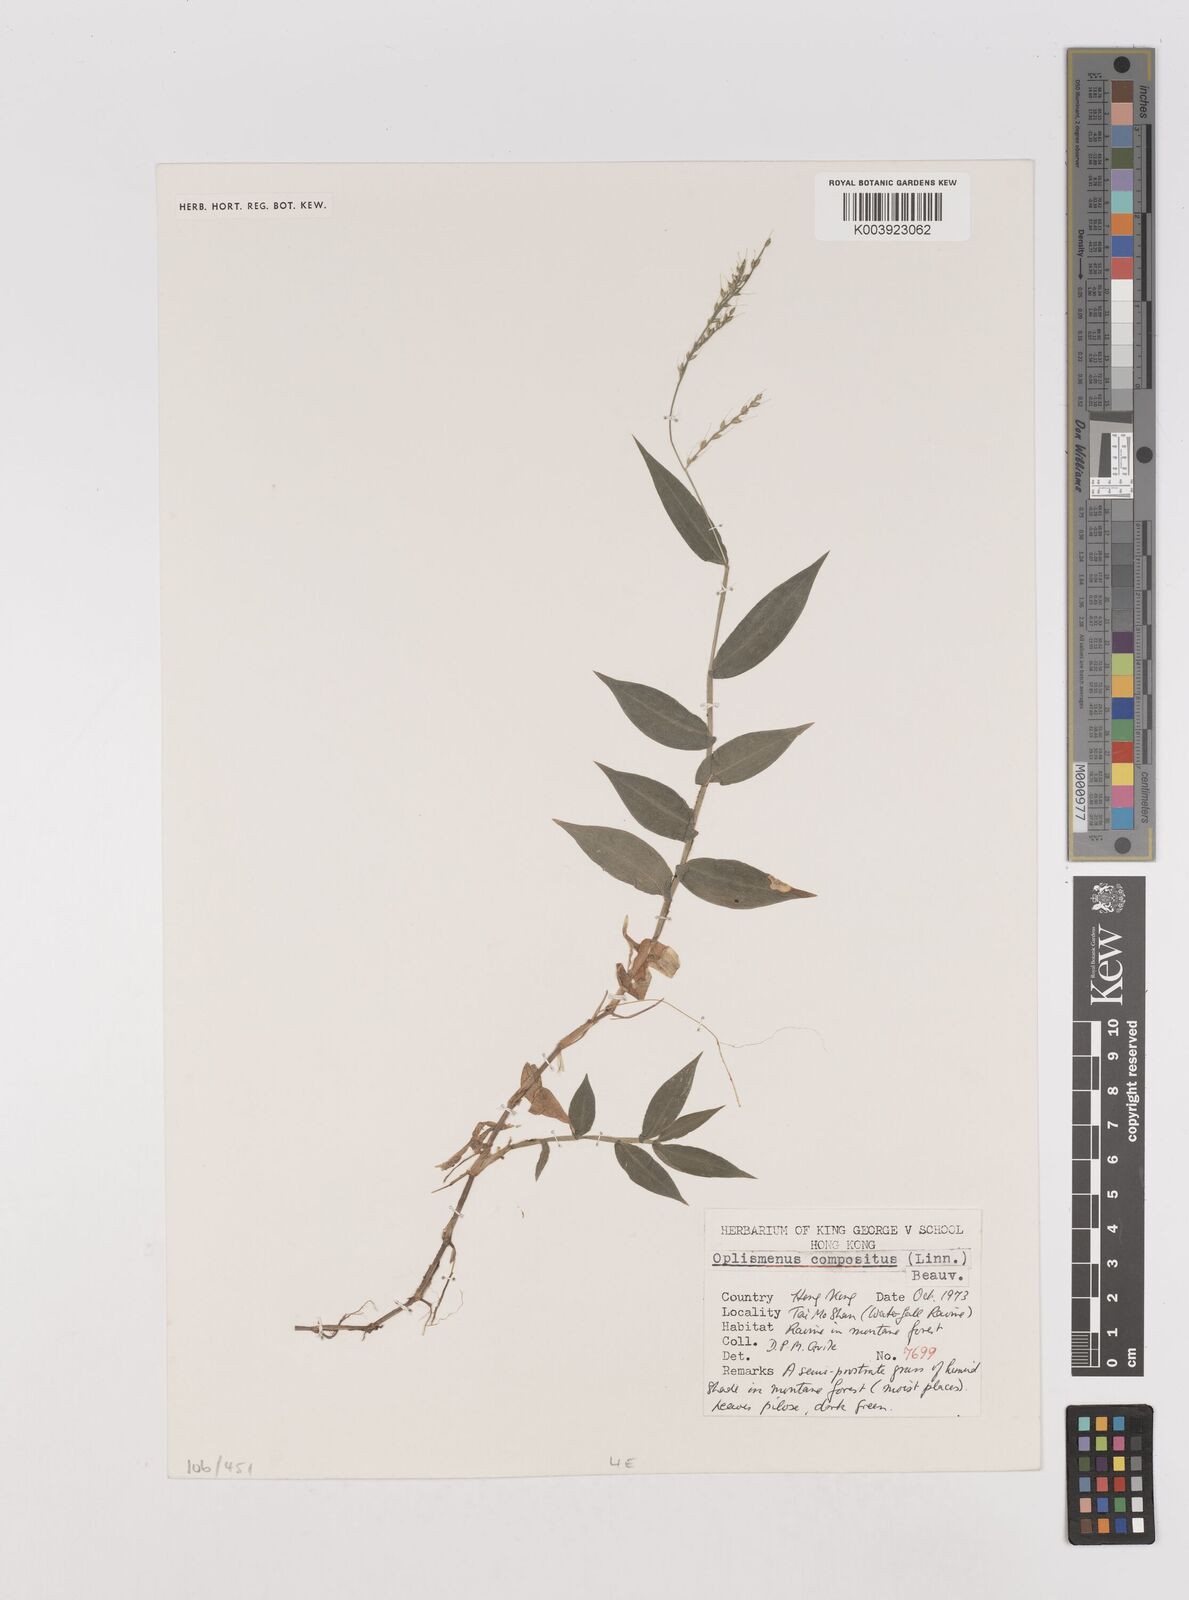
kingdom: Plantae
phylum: Tracheophyta
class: Liliopsida
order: Poales
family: Poaceae
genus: Oplismenus
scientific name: Oplismenus compositus
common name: Running mountain grass
